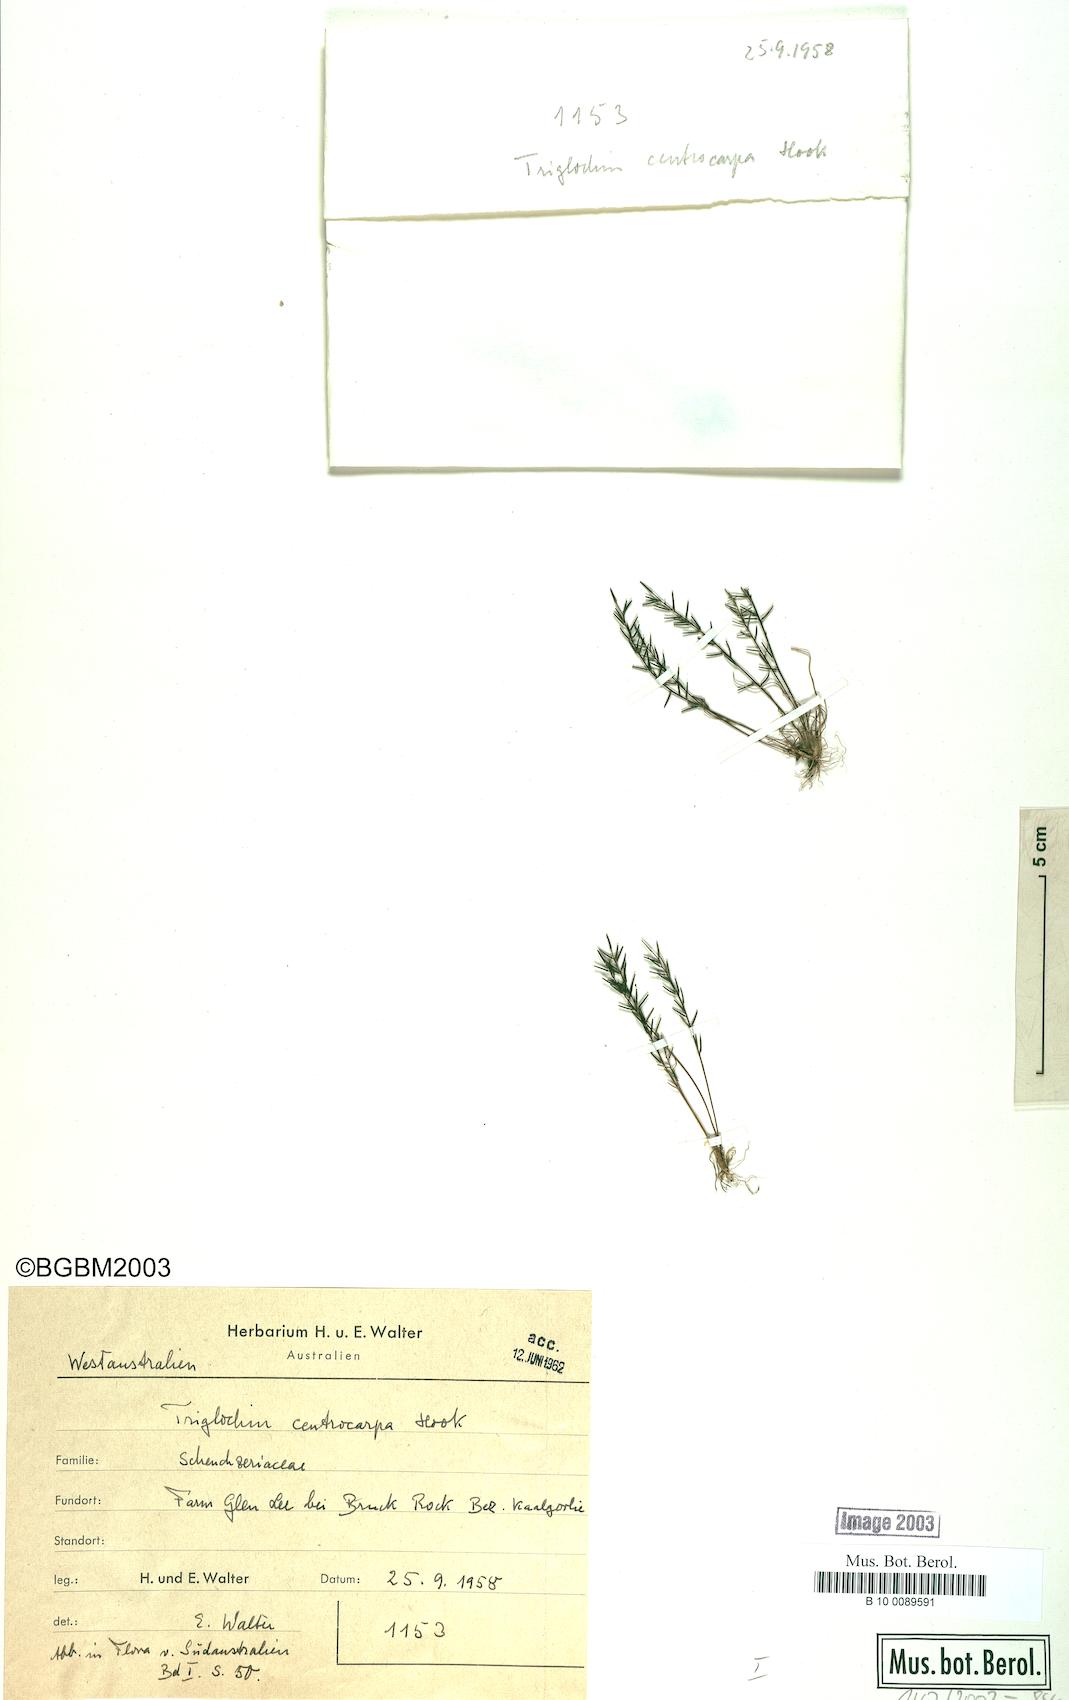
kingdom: Plantae
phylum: Tracheophyta
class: Liliopsida
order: Alismatales
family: Juncaginaceae
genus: Triglochin
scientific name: Triglochin centrocarpa
